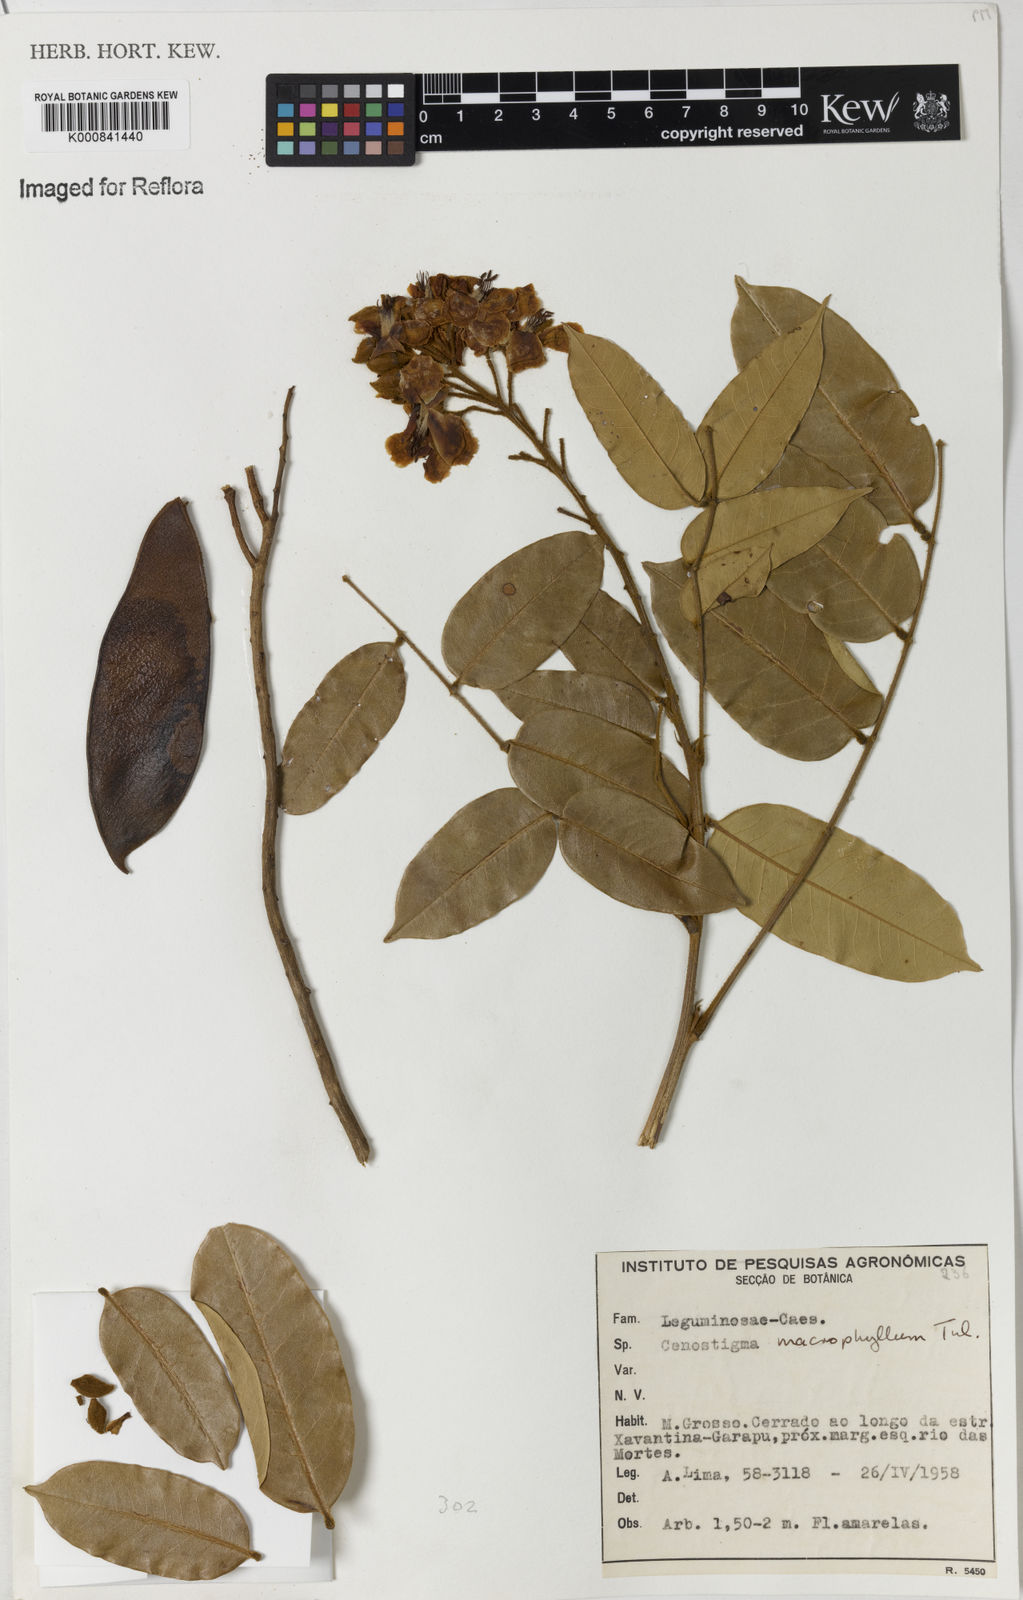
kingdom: Plantae
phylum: Tracheophyta
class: Magnoliopsida
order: Fabales
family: Fabaceae
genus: Cenostigma
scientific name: Cenostigma macrophyllum
